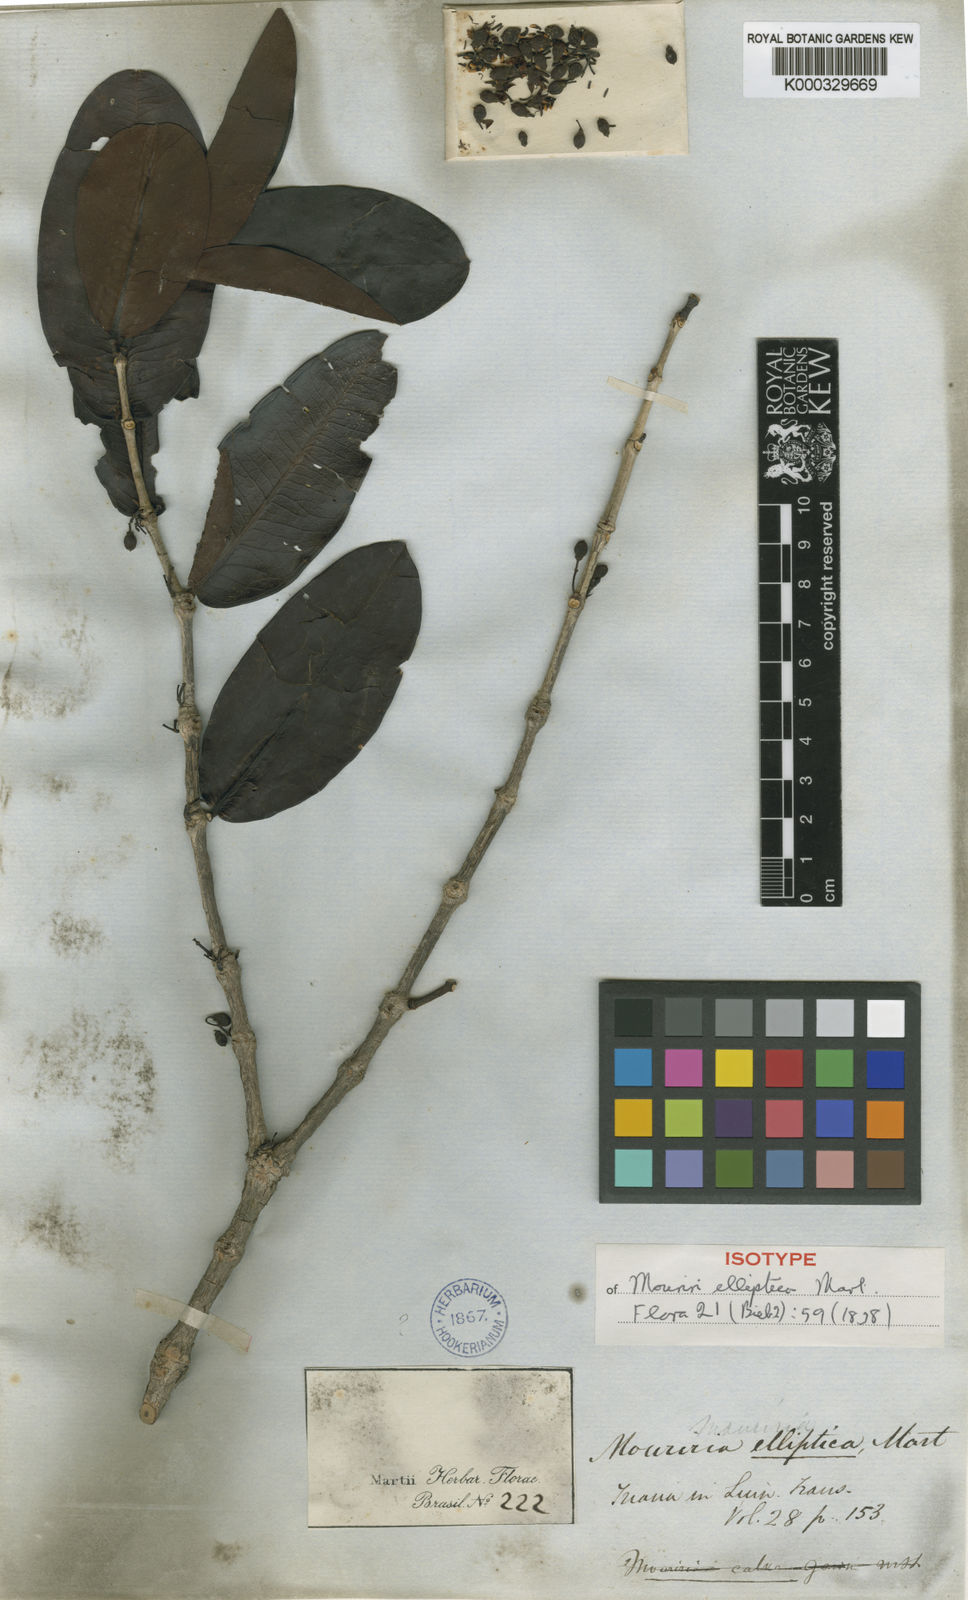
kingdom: Plantae
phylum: Tracheophyta
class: Magnoliopsida
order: Myrtales
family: Melastomataceae
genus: Mouriri
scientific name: Mouriri elliptica
